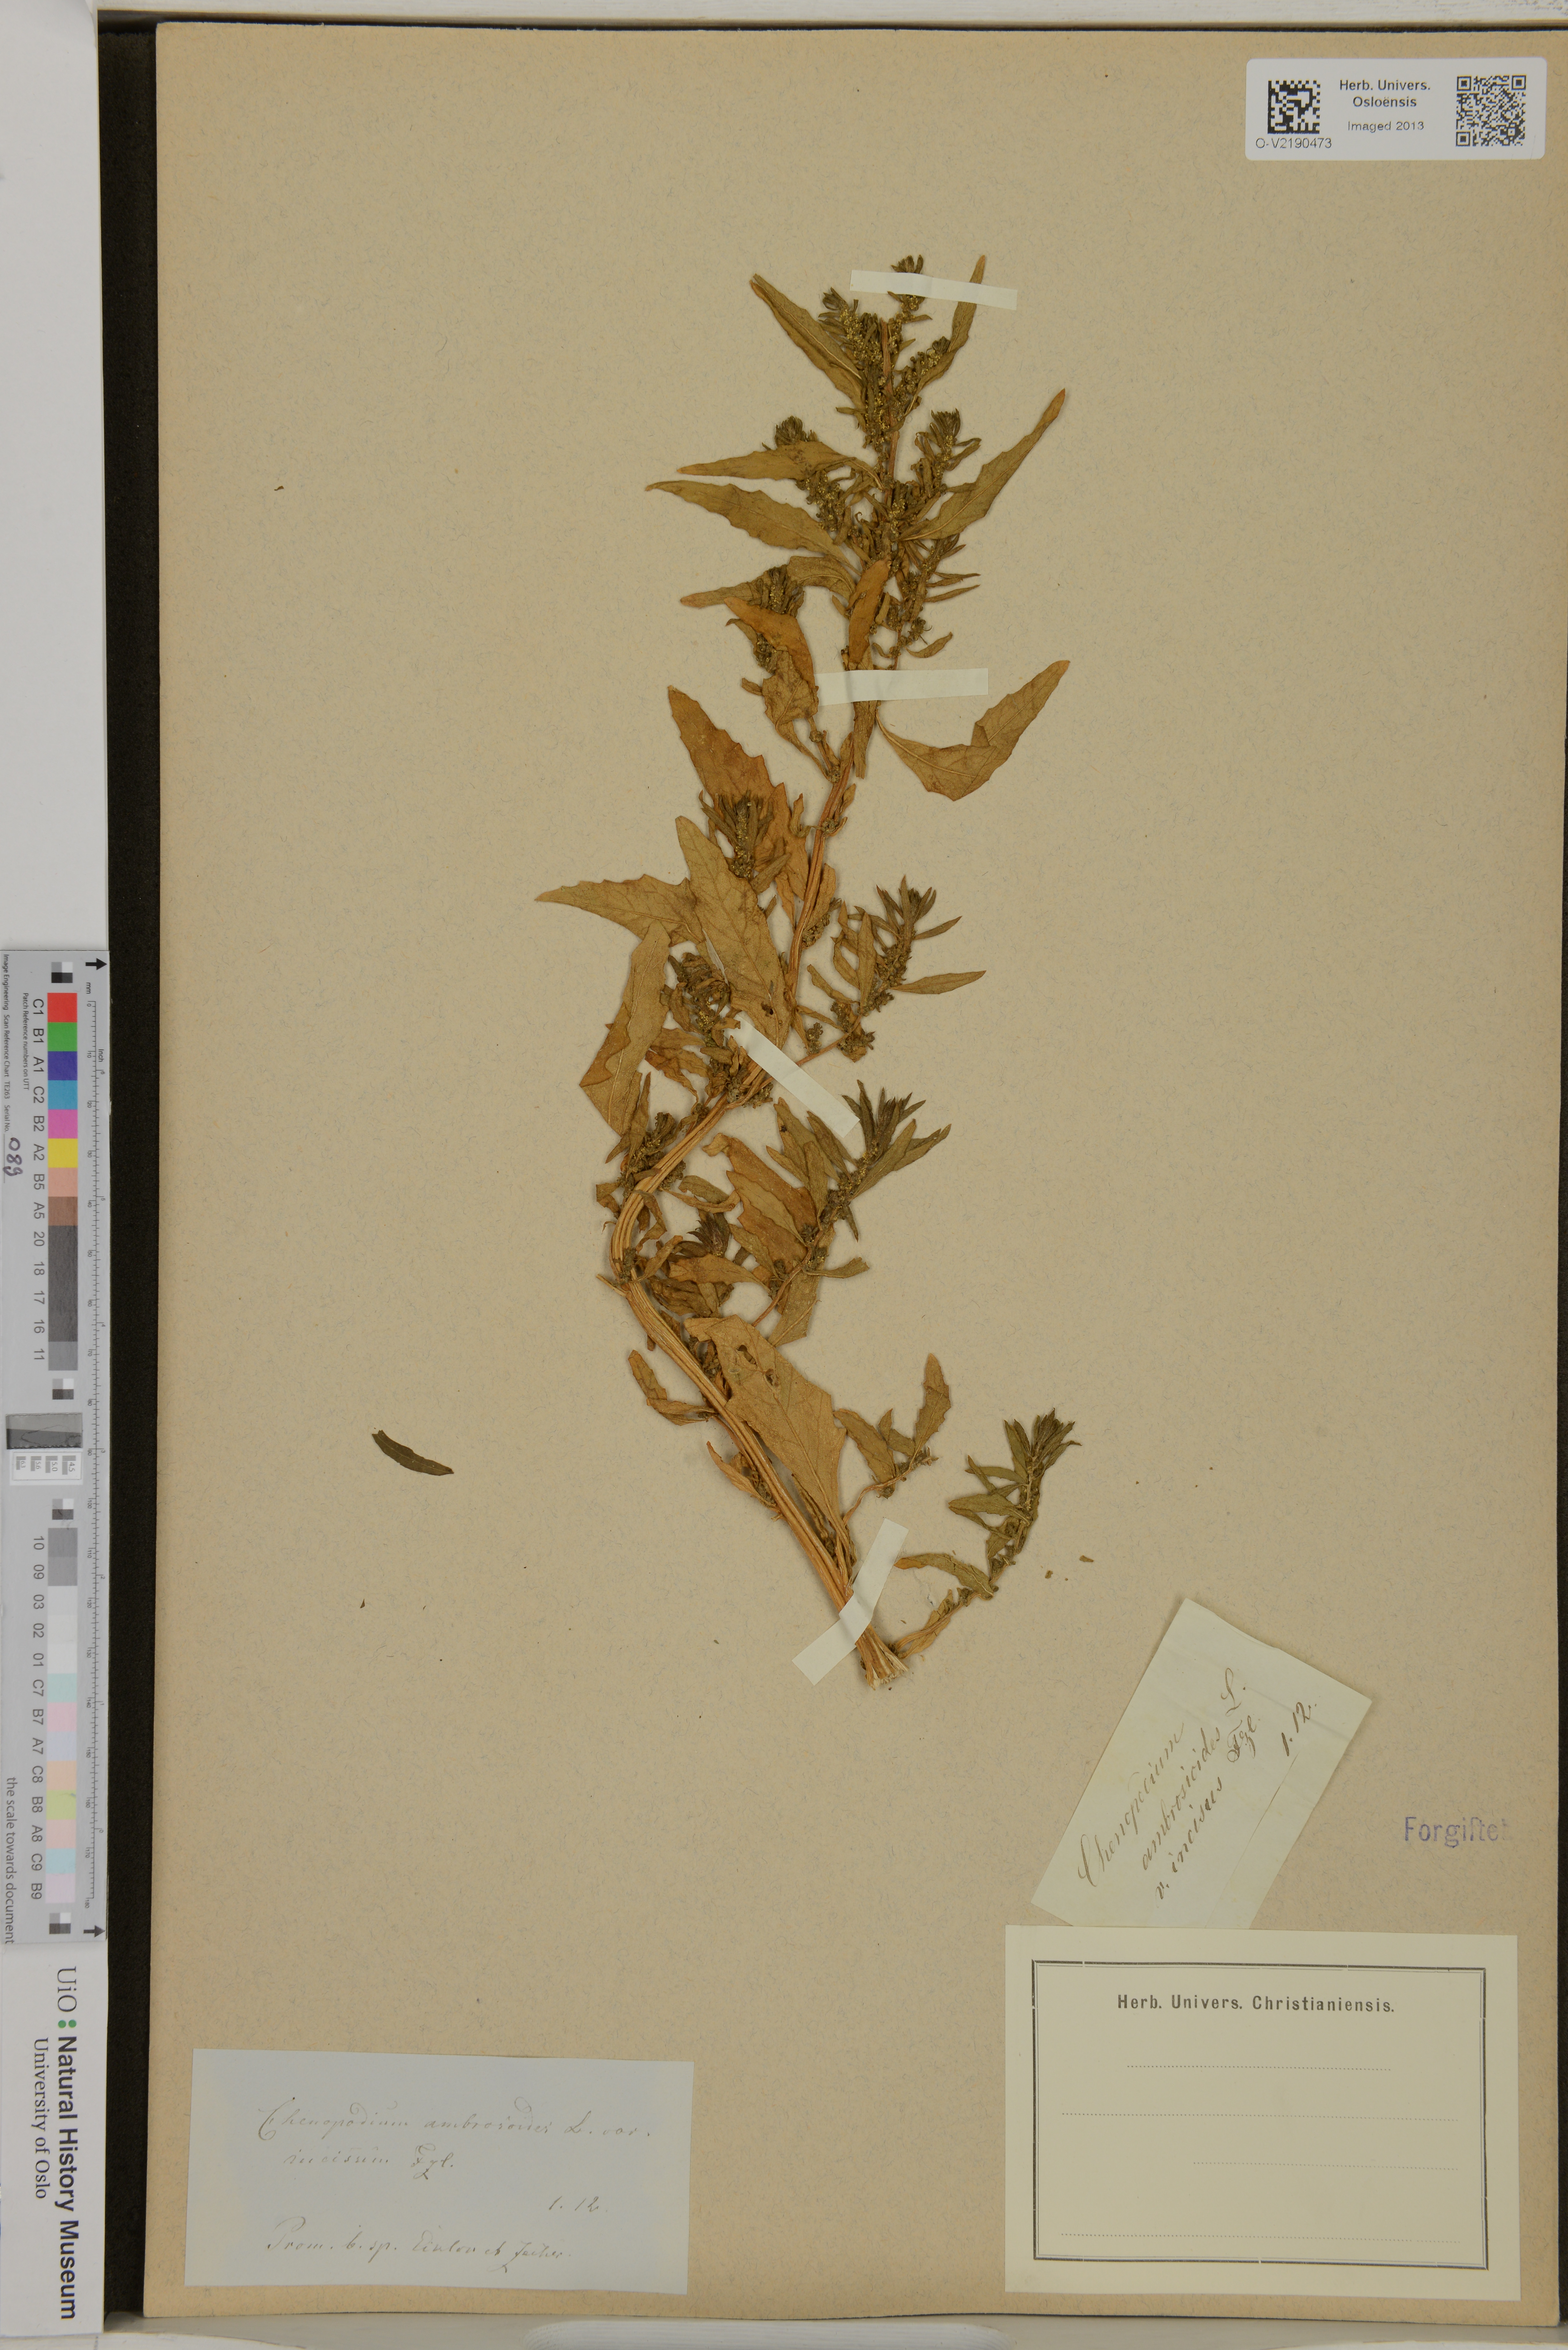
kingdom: Plantae
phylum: Tracheophyta
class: Magnoliopsida
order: Caryophyllales
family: Amaranthaceae
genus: Dysphania
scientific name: Dysphania ambrosioides
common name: Wormseed
